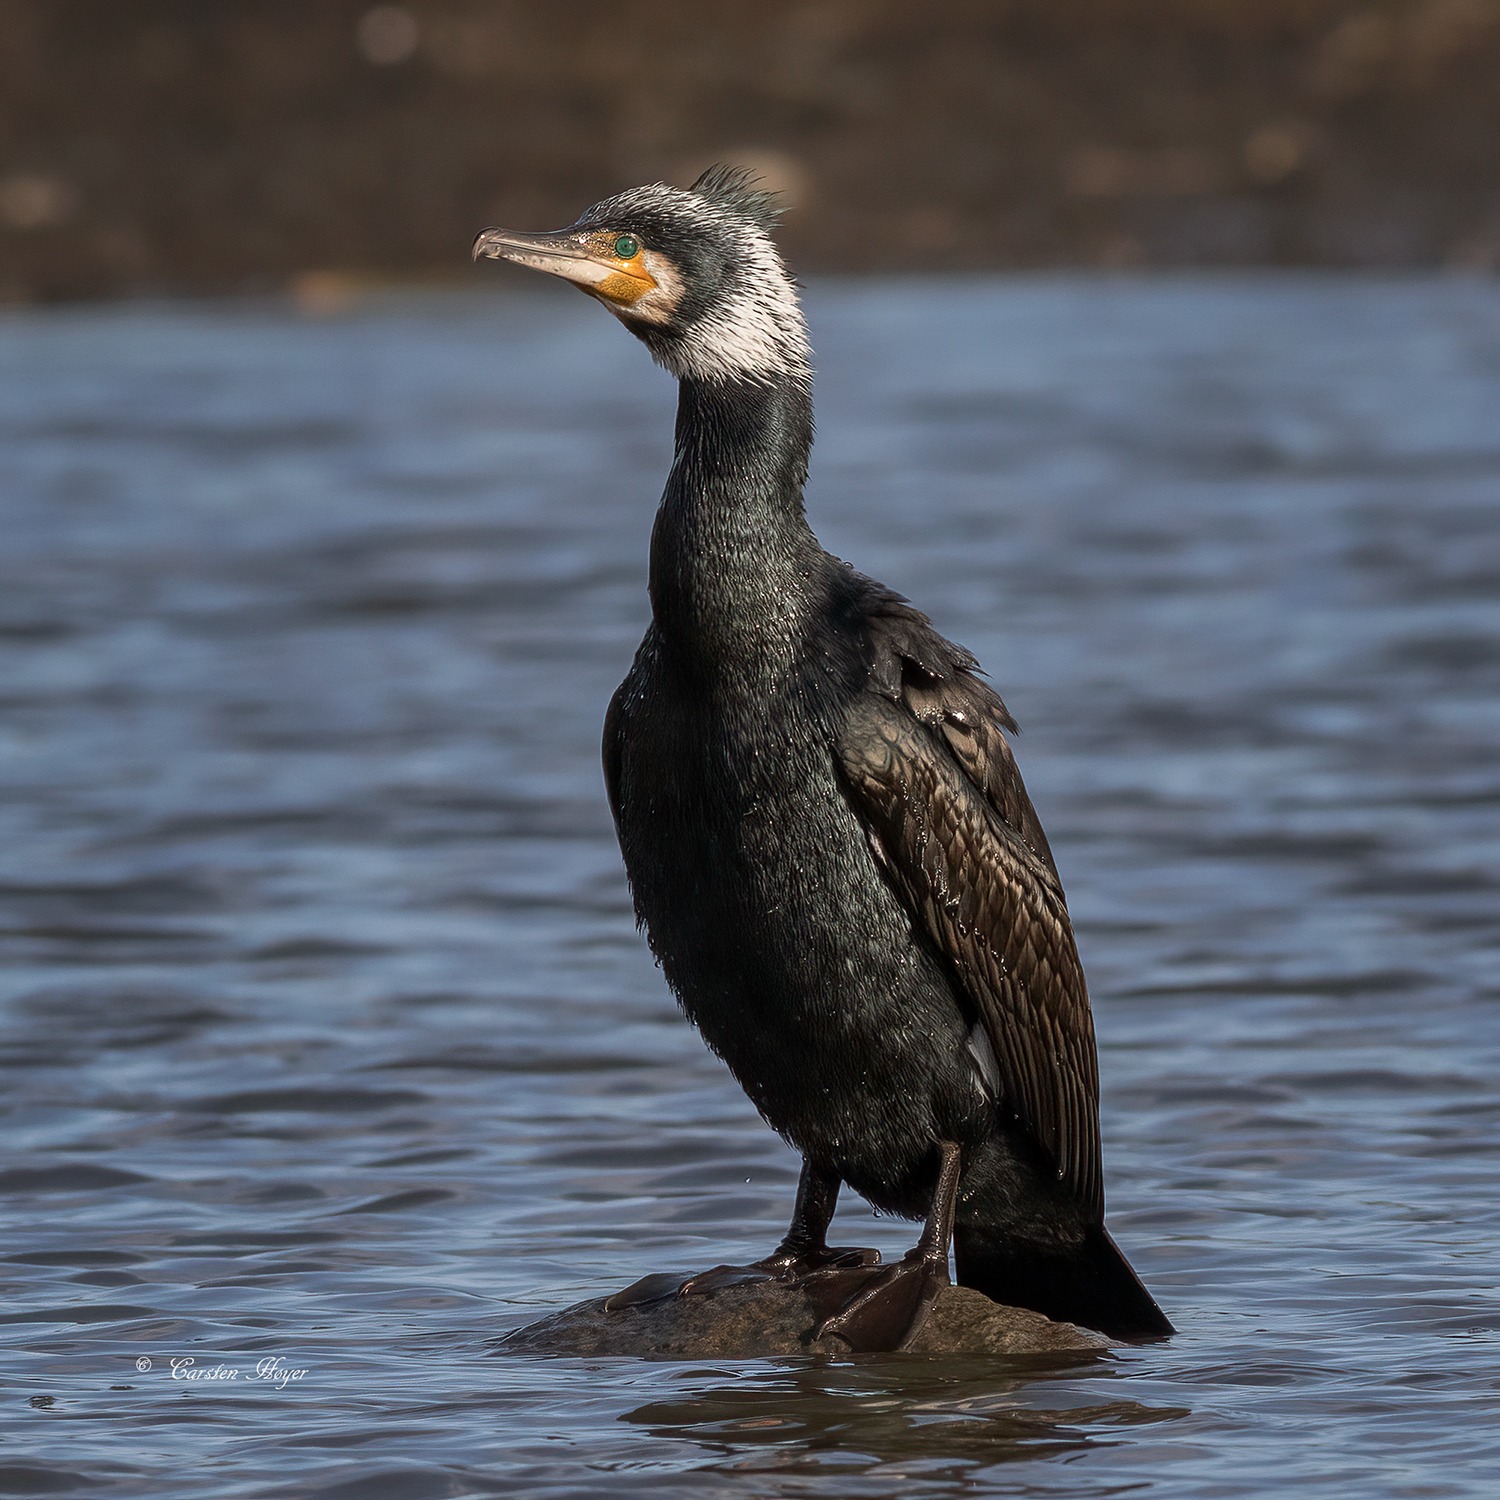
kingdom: Animalia
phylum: Chordata
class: Aves
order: Suliformes
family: Phalacrocoracidae
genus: Phalacrocorax
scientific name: Phalacrocorax carbo
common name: Skarv
